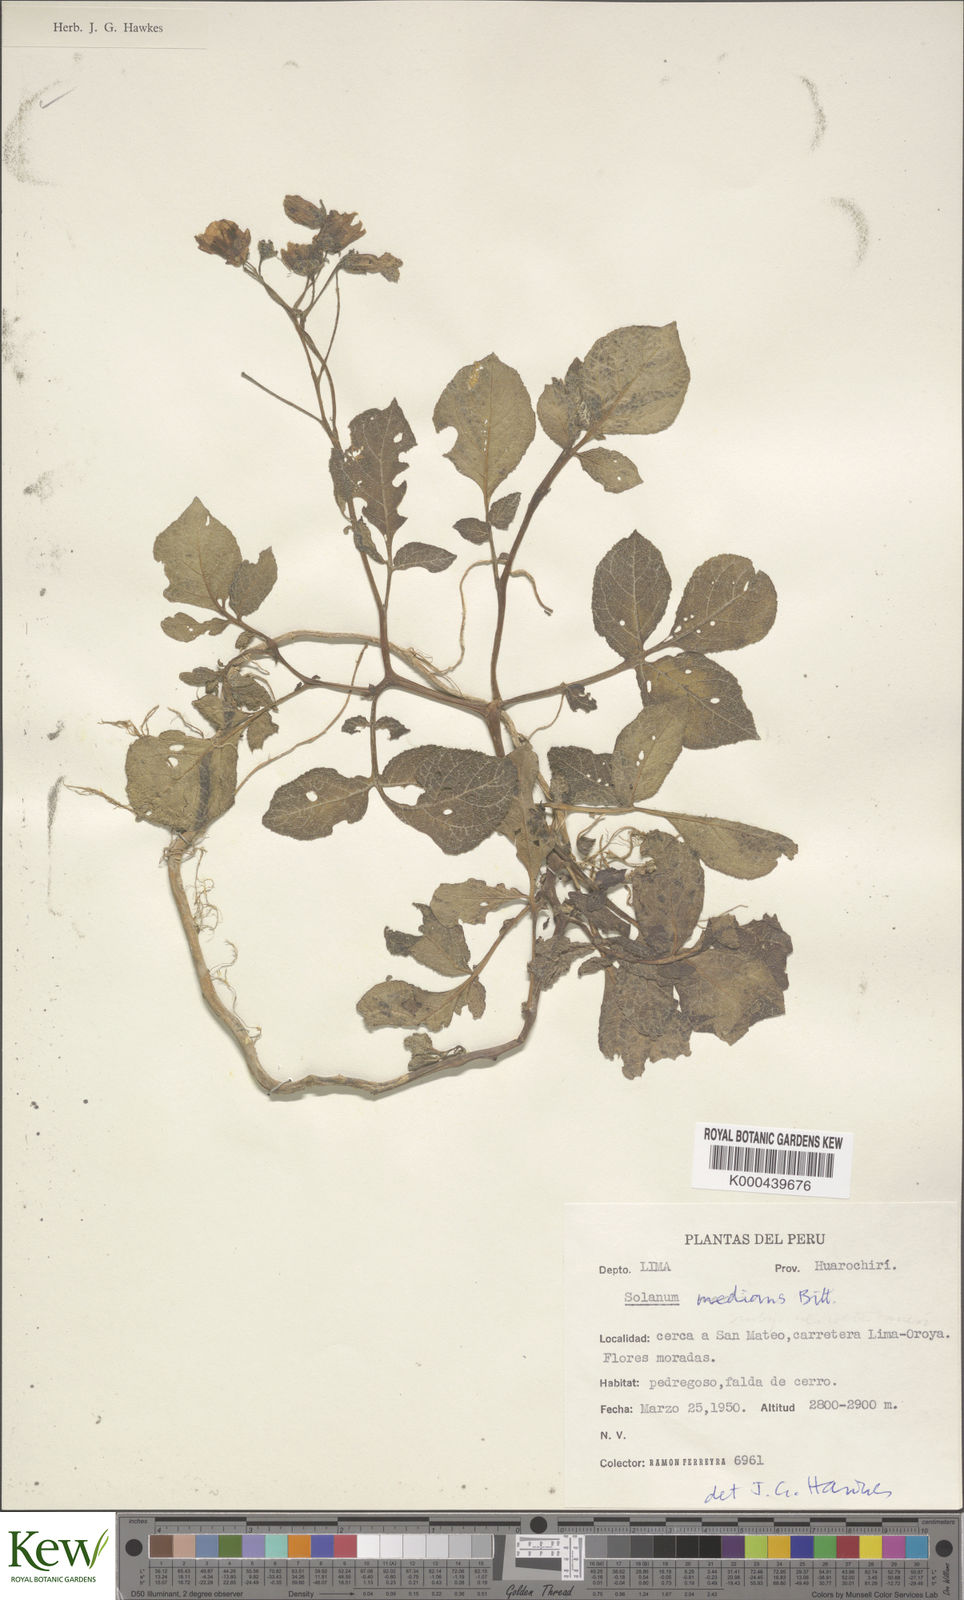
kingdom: Plantae
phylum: Tracheophyta
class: Magnoliopsida
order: Solanales
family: Solanaceae
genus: Solanum
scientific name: Solanum medians
